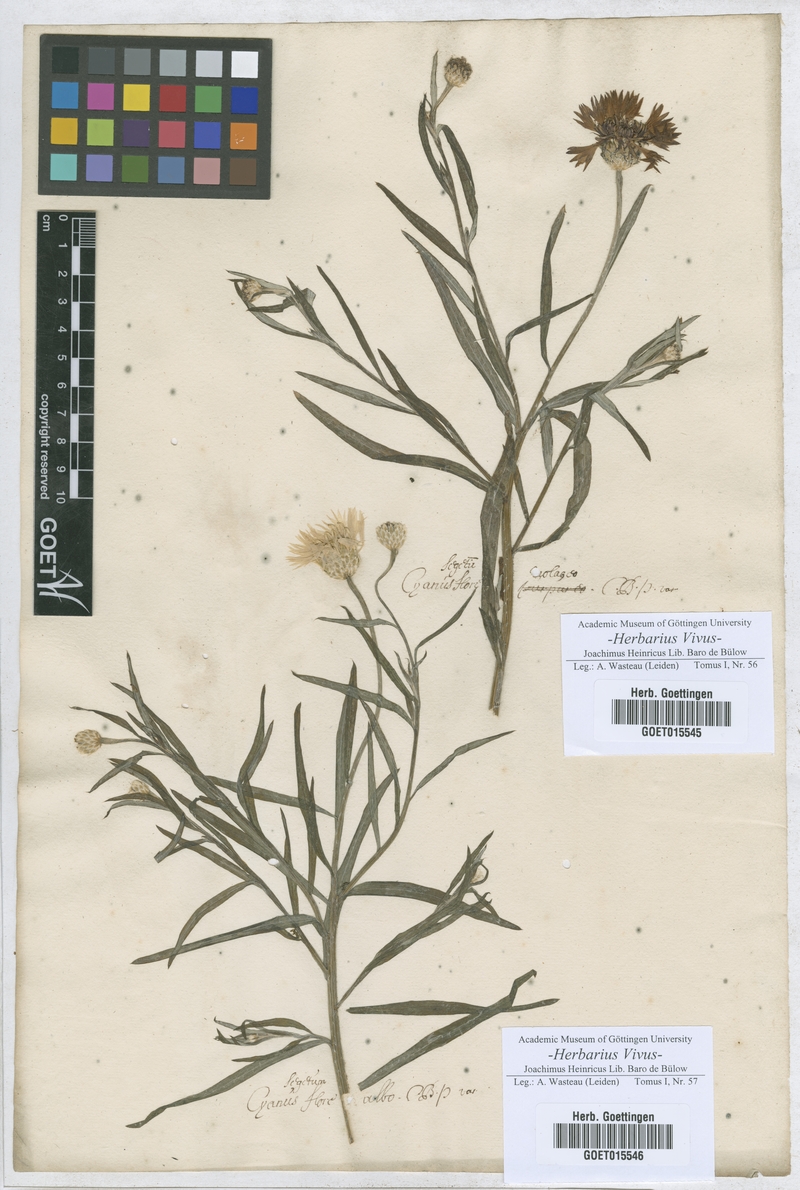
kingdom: Plantae
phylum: Tracheophyta
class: Magnoliopsida
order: Asterales
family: Asteraceae
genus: Centaurea
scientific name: Centaurea cyanus
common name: Cornflower
